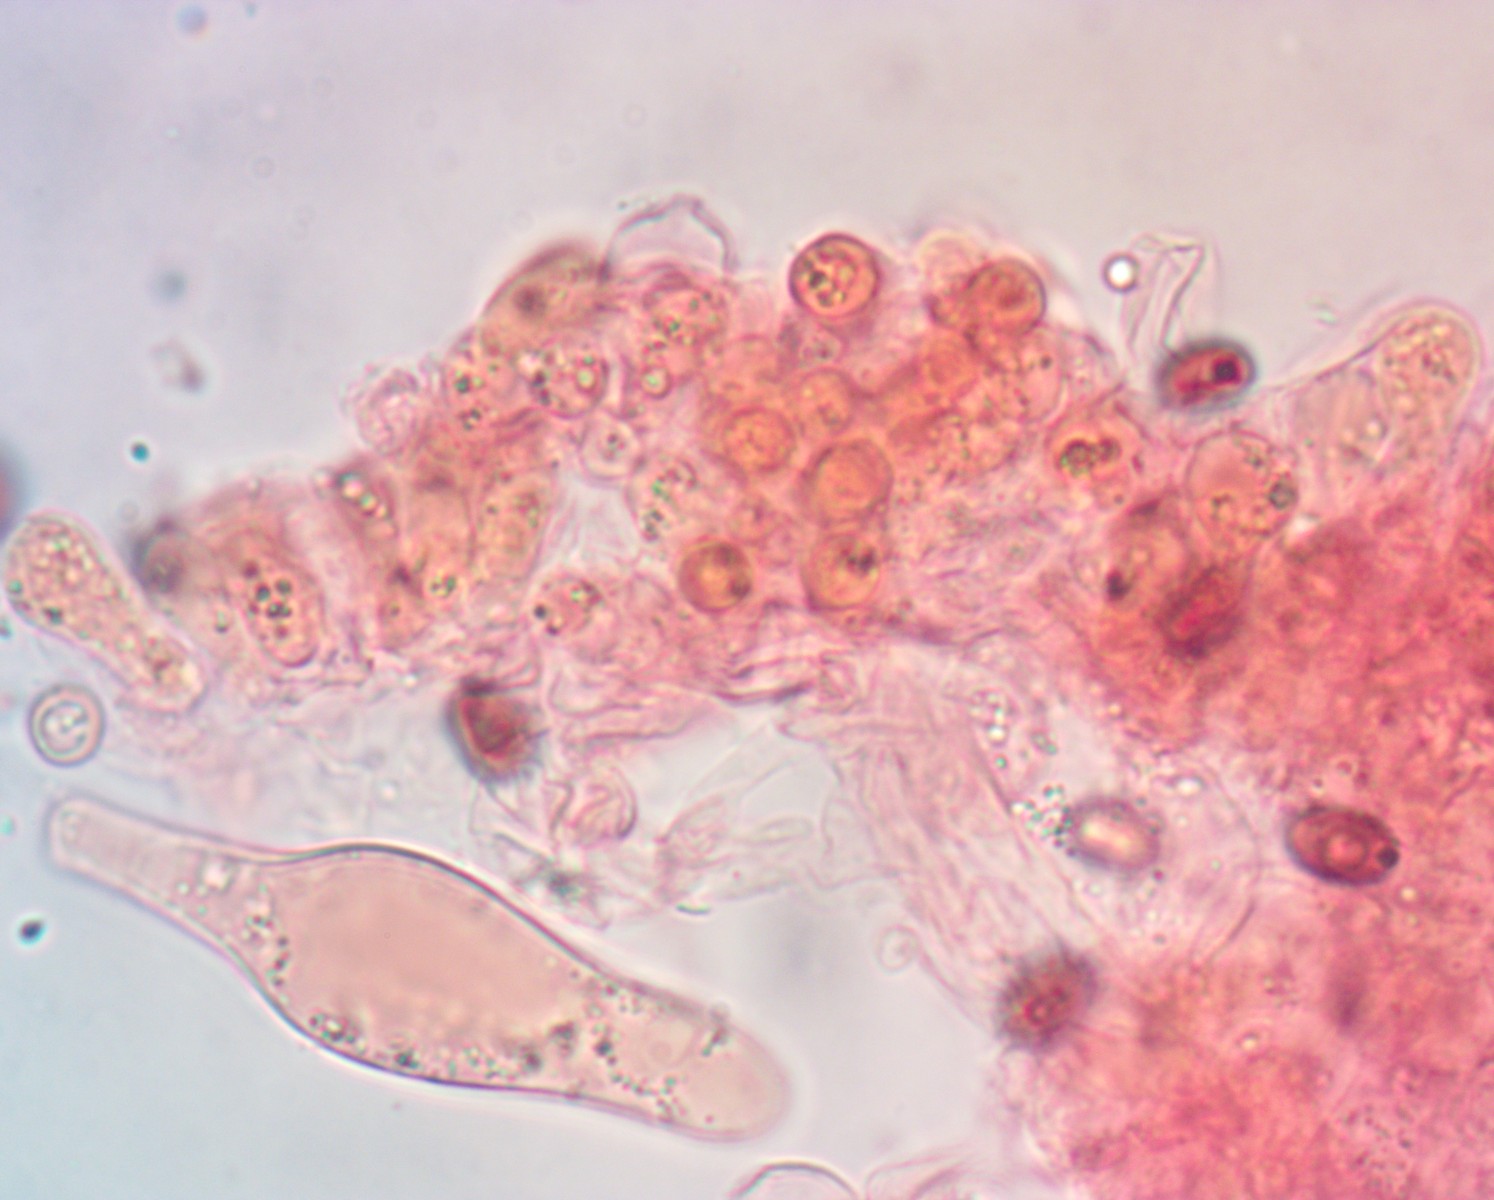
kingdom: Fungi
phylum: Basidiomycota
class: Agaricomycetes
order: Agaricales
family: Psathyrellaceae
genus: Psathyrella
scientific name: Psathyrella noli-tangere
